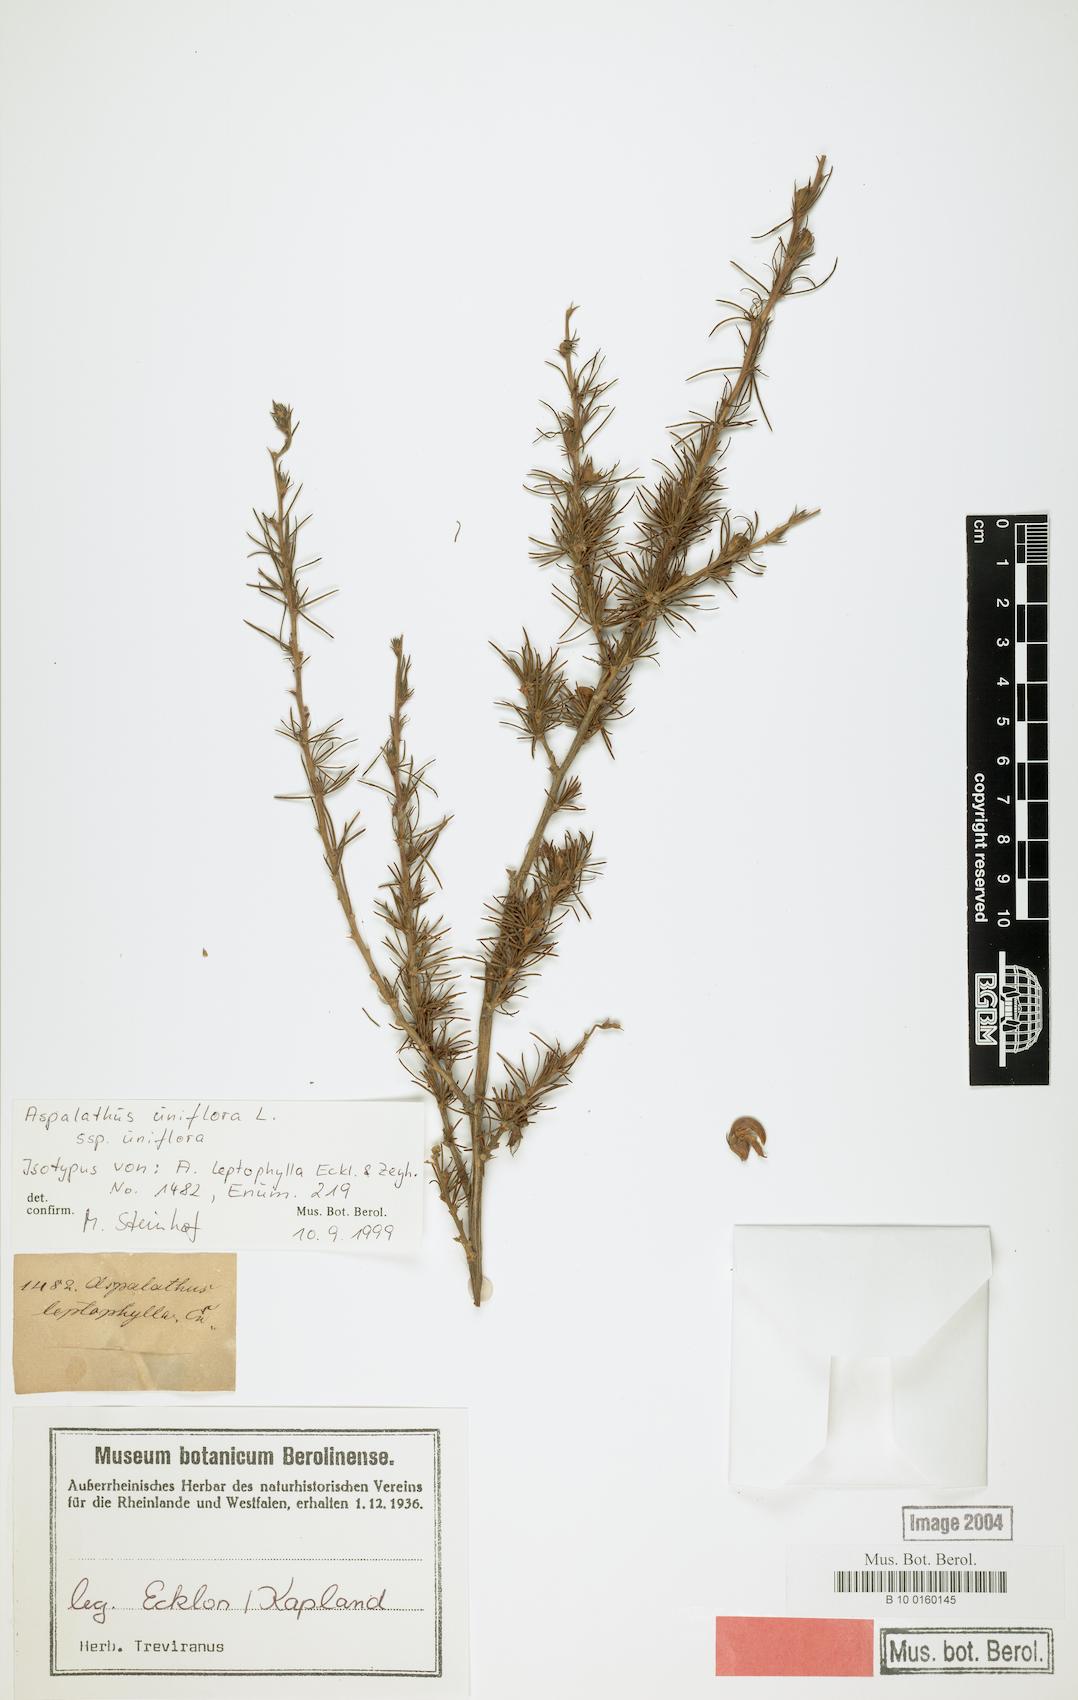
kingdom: Plantae
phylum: Tracheophyta
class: Magnoliopsida
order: Fabales
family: Fabaceae
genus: Aspalathus
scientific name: Aspalathus uniflora
